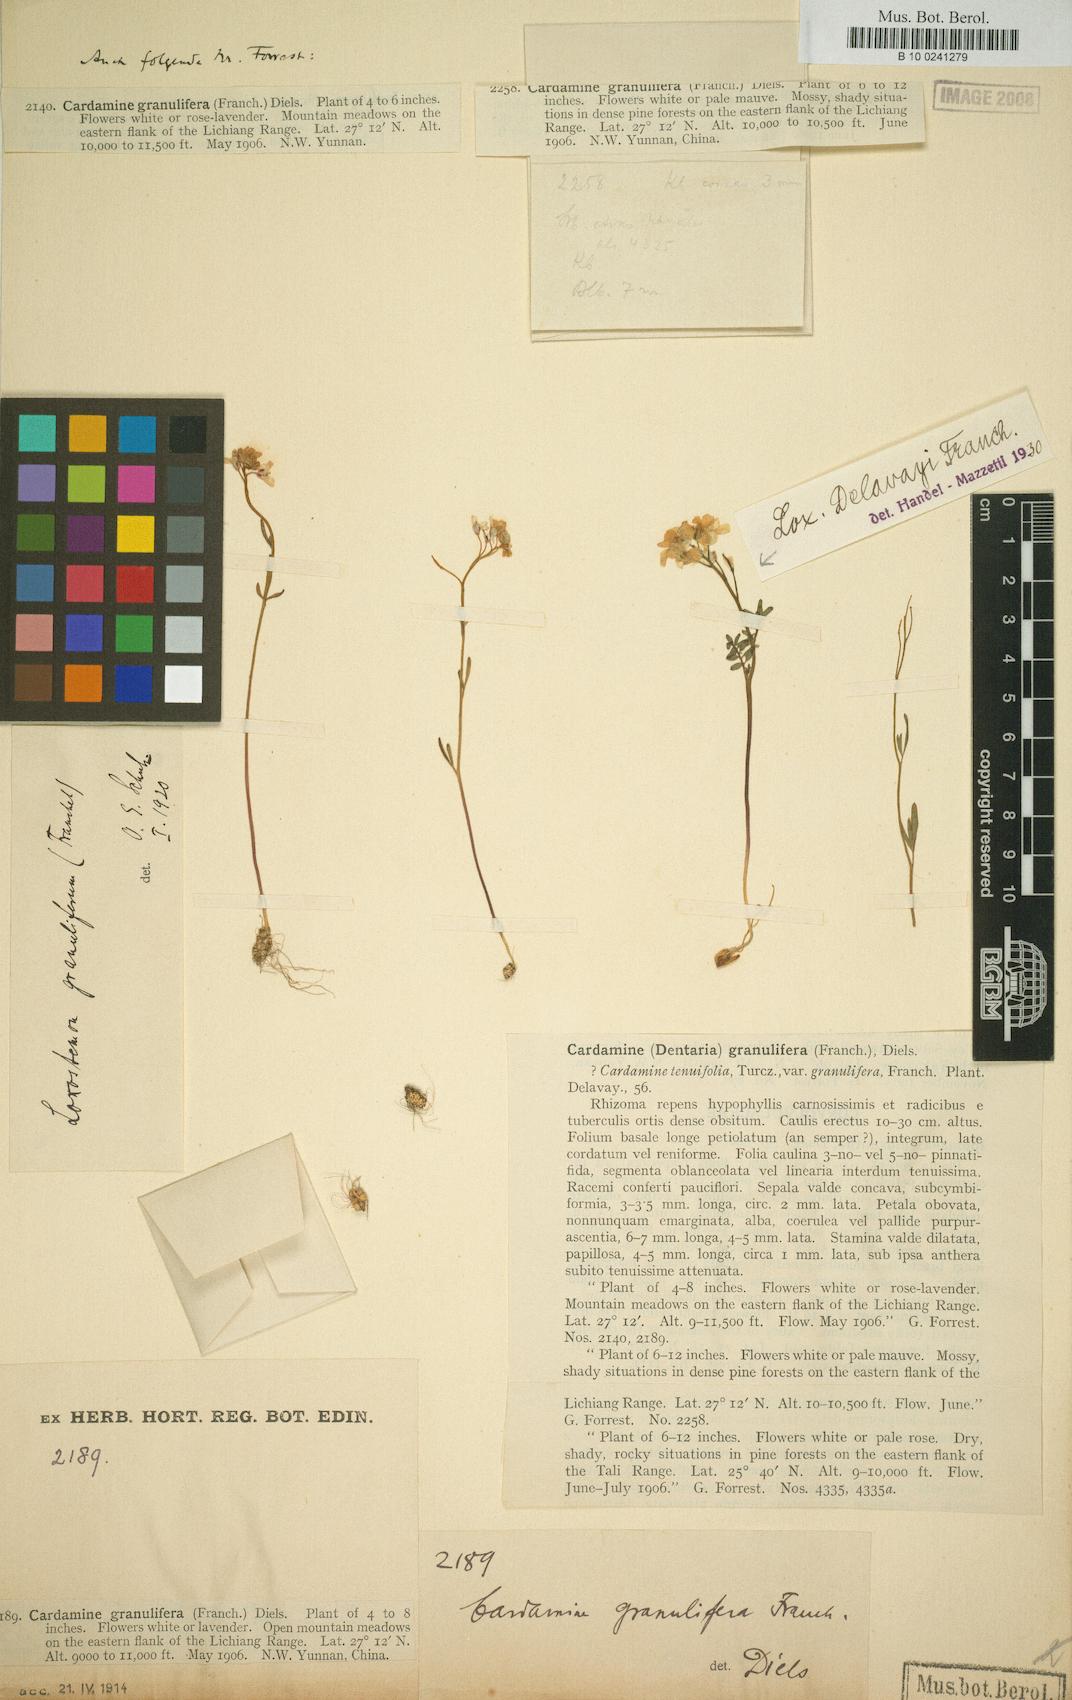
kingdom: Plantae
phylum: Tracheophyta
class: Magnoliopsida
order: Brassicales
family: Brassicaceae
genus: Cardamine
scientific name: Cardamine granulifera
